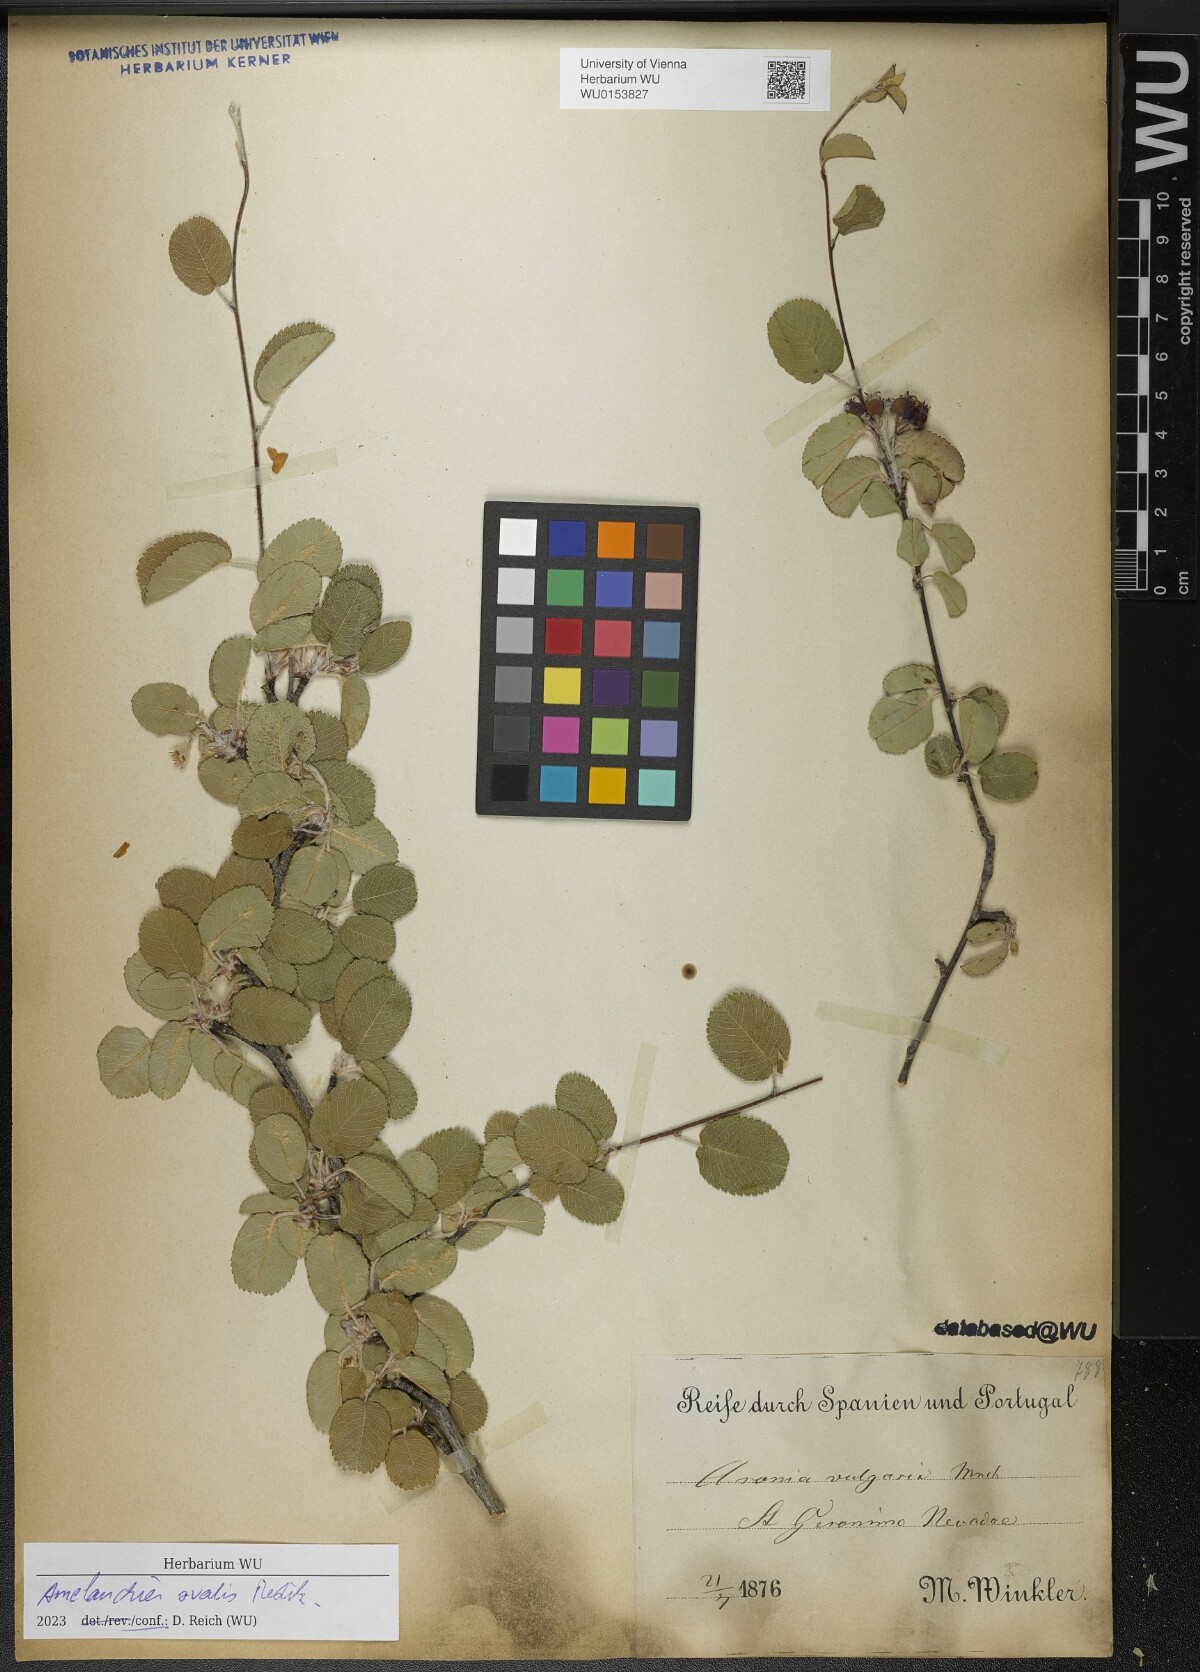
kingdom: Plantae
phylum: Tracheophyta
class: Magnoliopsida
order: Rosales
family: Rosaceae
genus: Amelanchier
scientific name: Amelanchier ovalis
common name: Serviceberry
